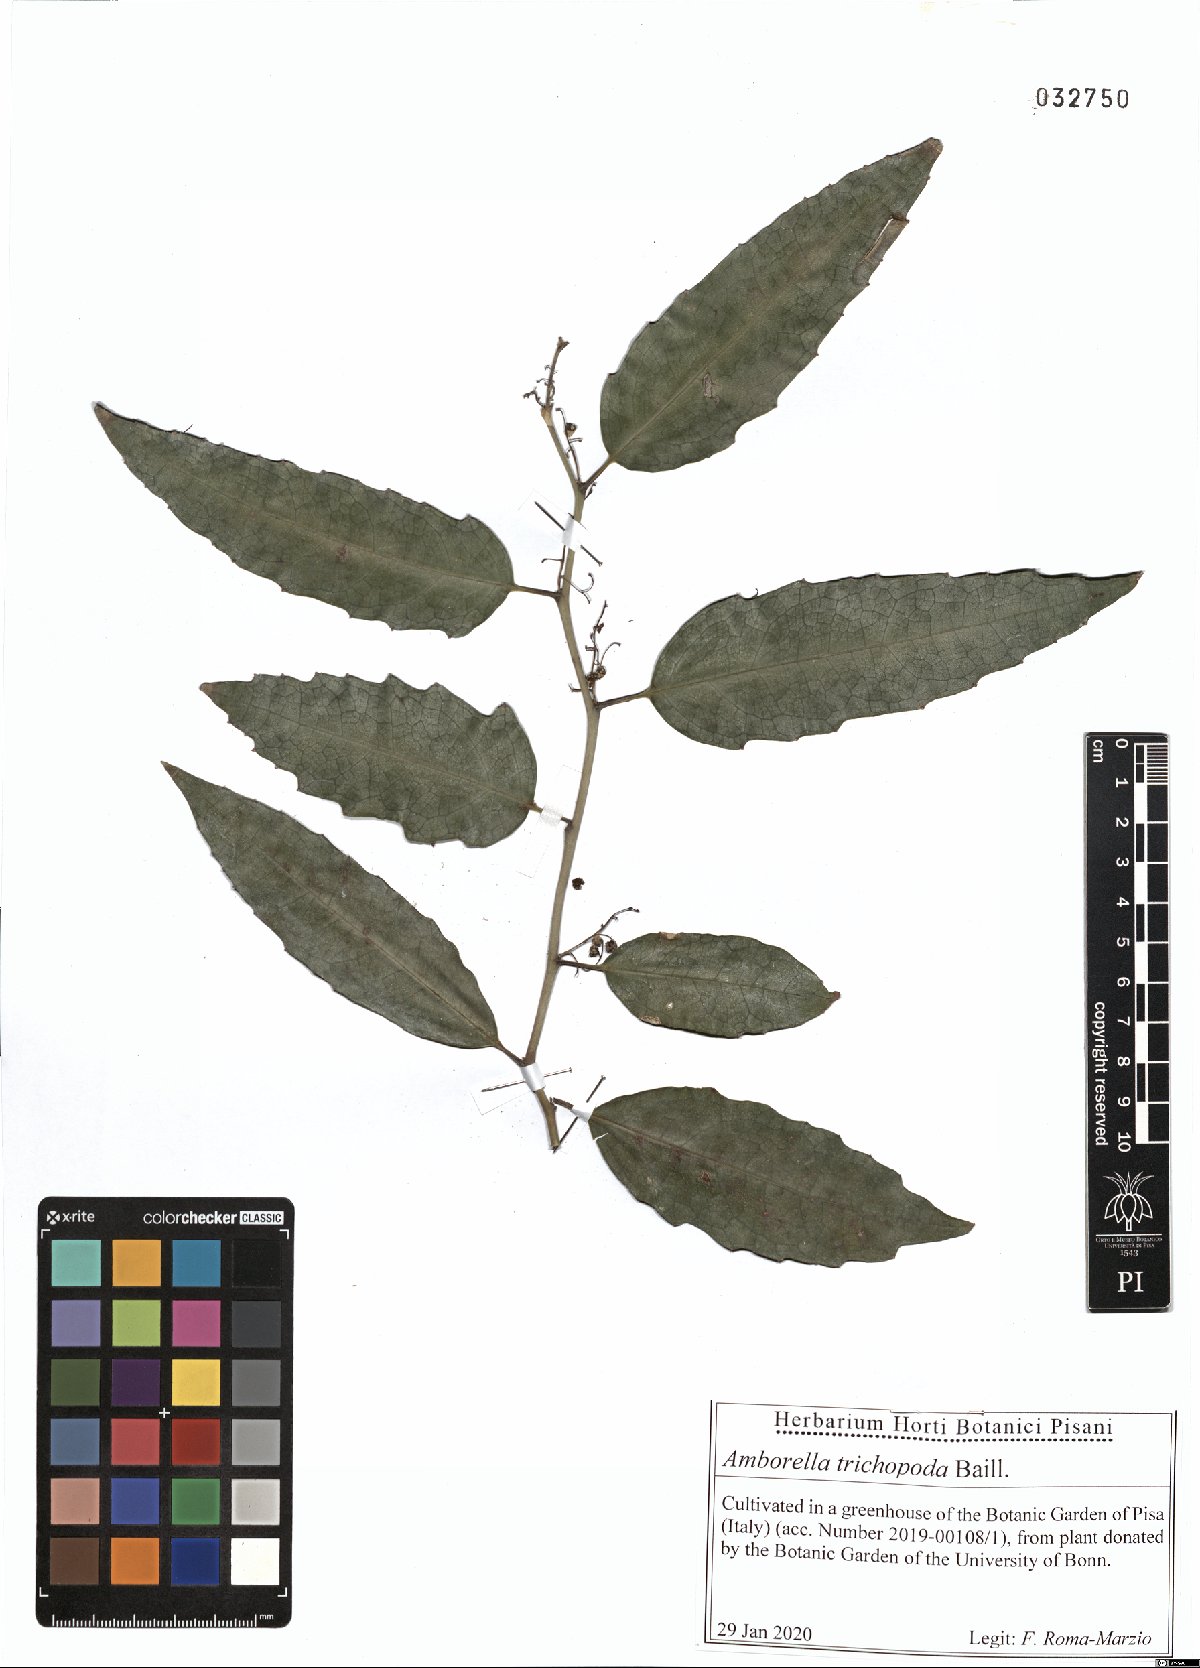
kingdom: Plantae
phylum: Tracheophyta
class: Magnoliopsida
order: Amborellales
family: Amborellaceae
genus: Amborella
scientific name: Amborella trichopoda
